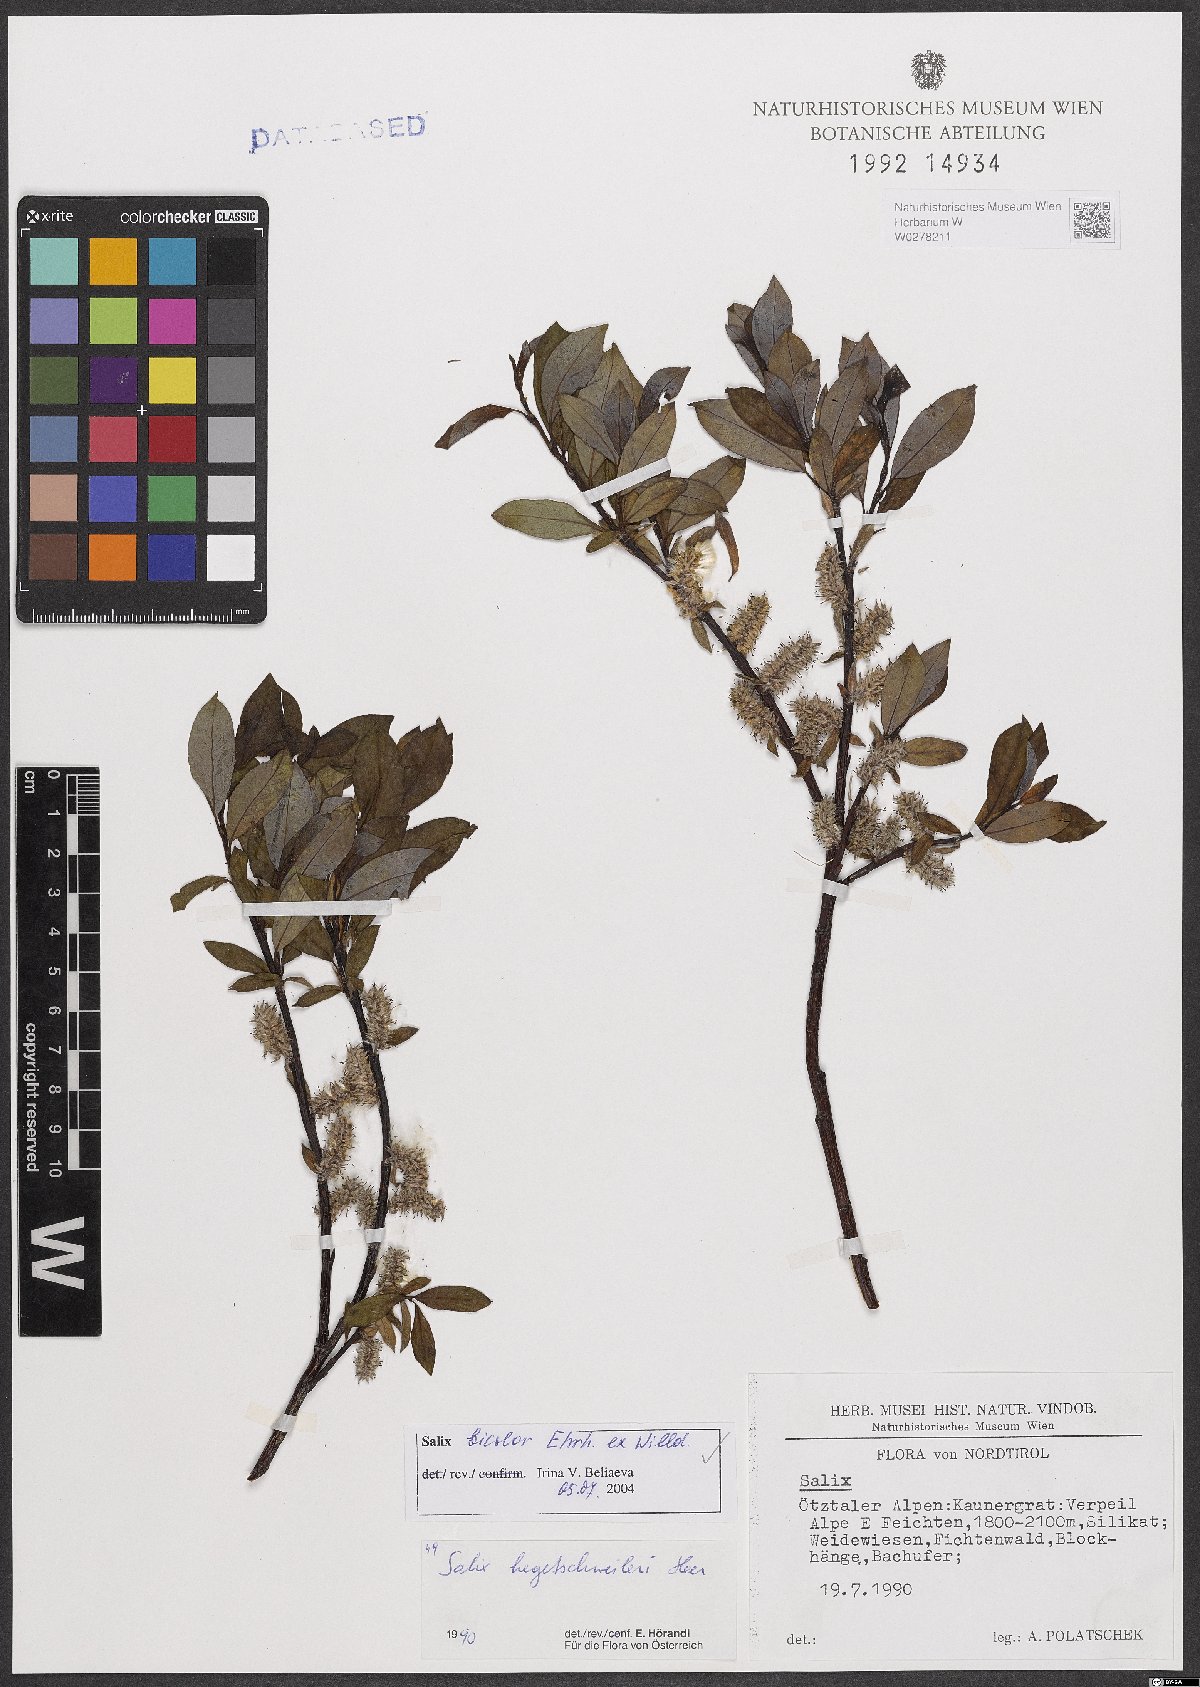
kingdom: Plantae
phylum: Tracheophyta
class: Magnoliopsida
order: Malpighiales
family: Salicaceae
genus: Salix
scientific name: Salix bicolor
